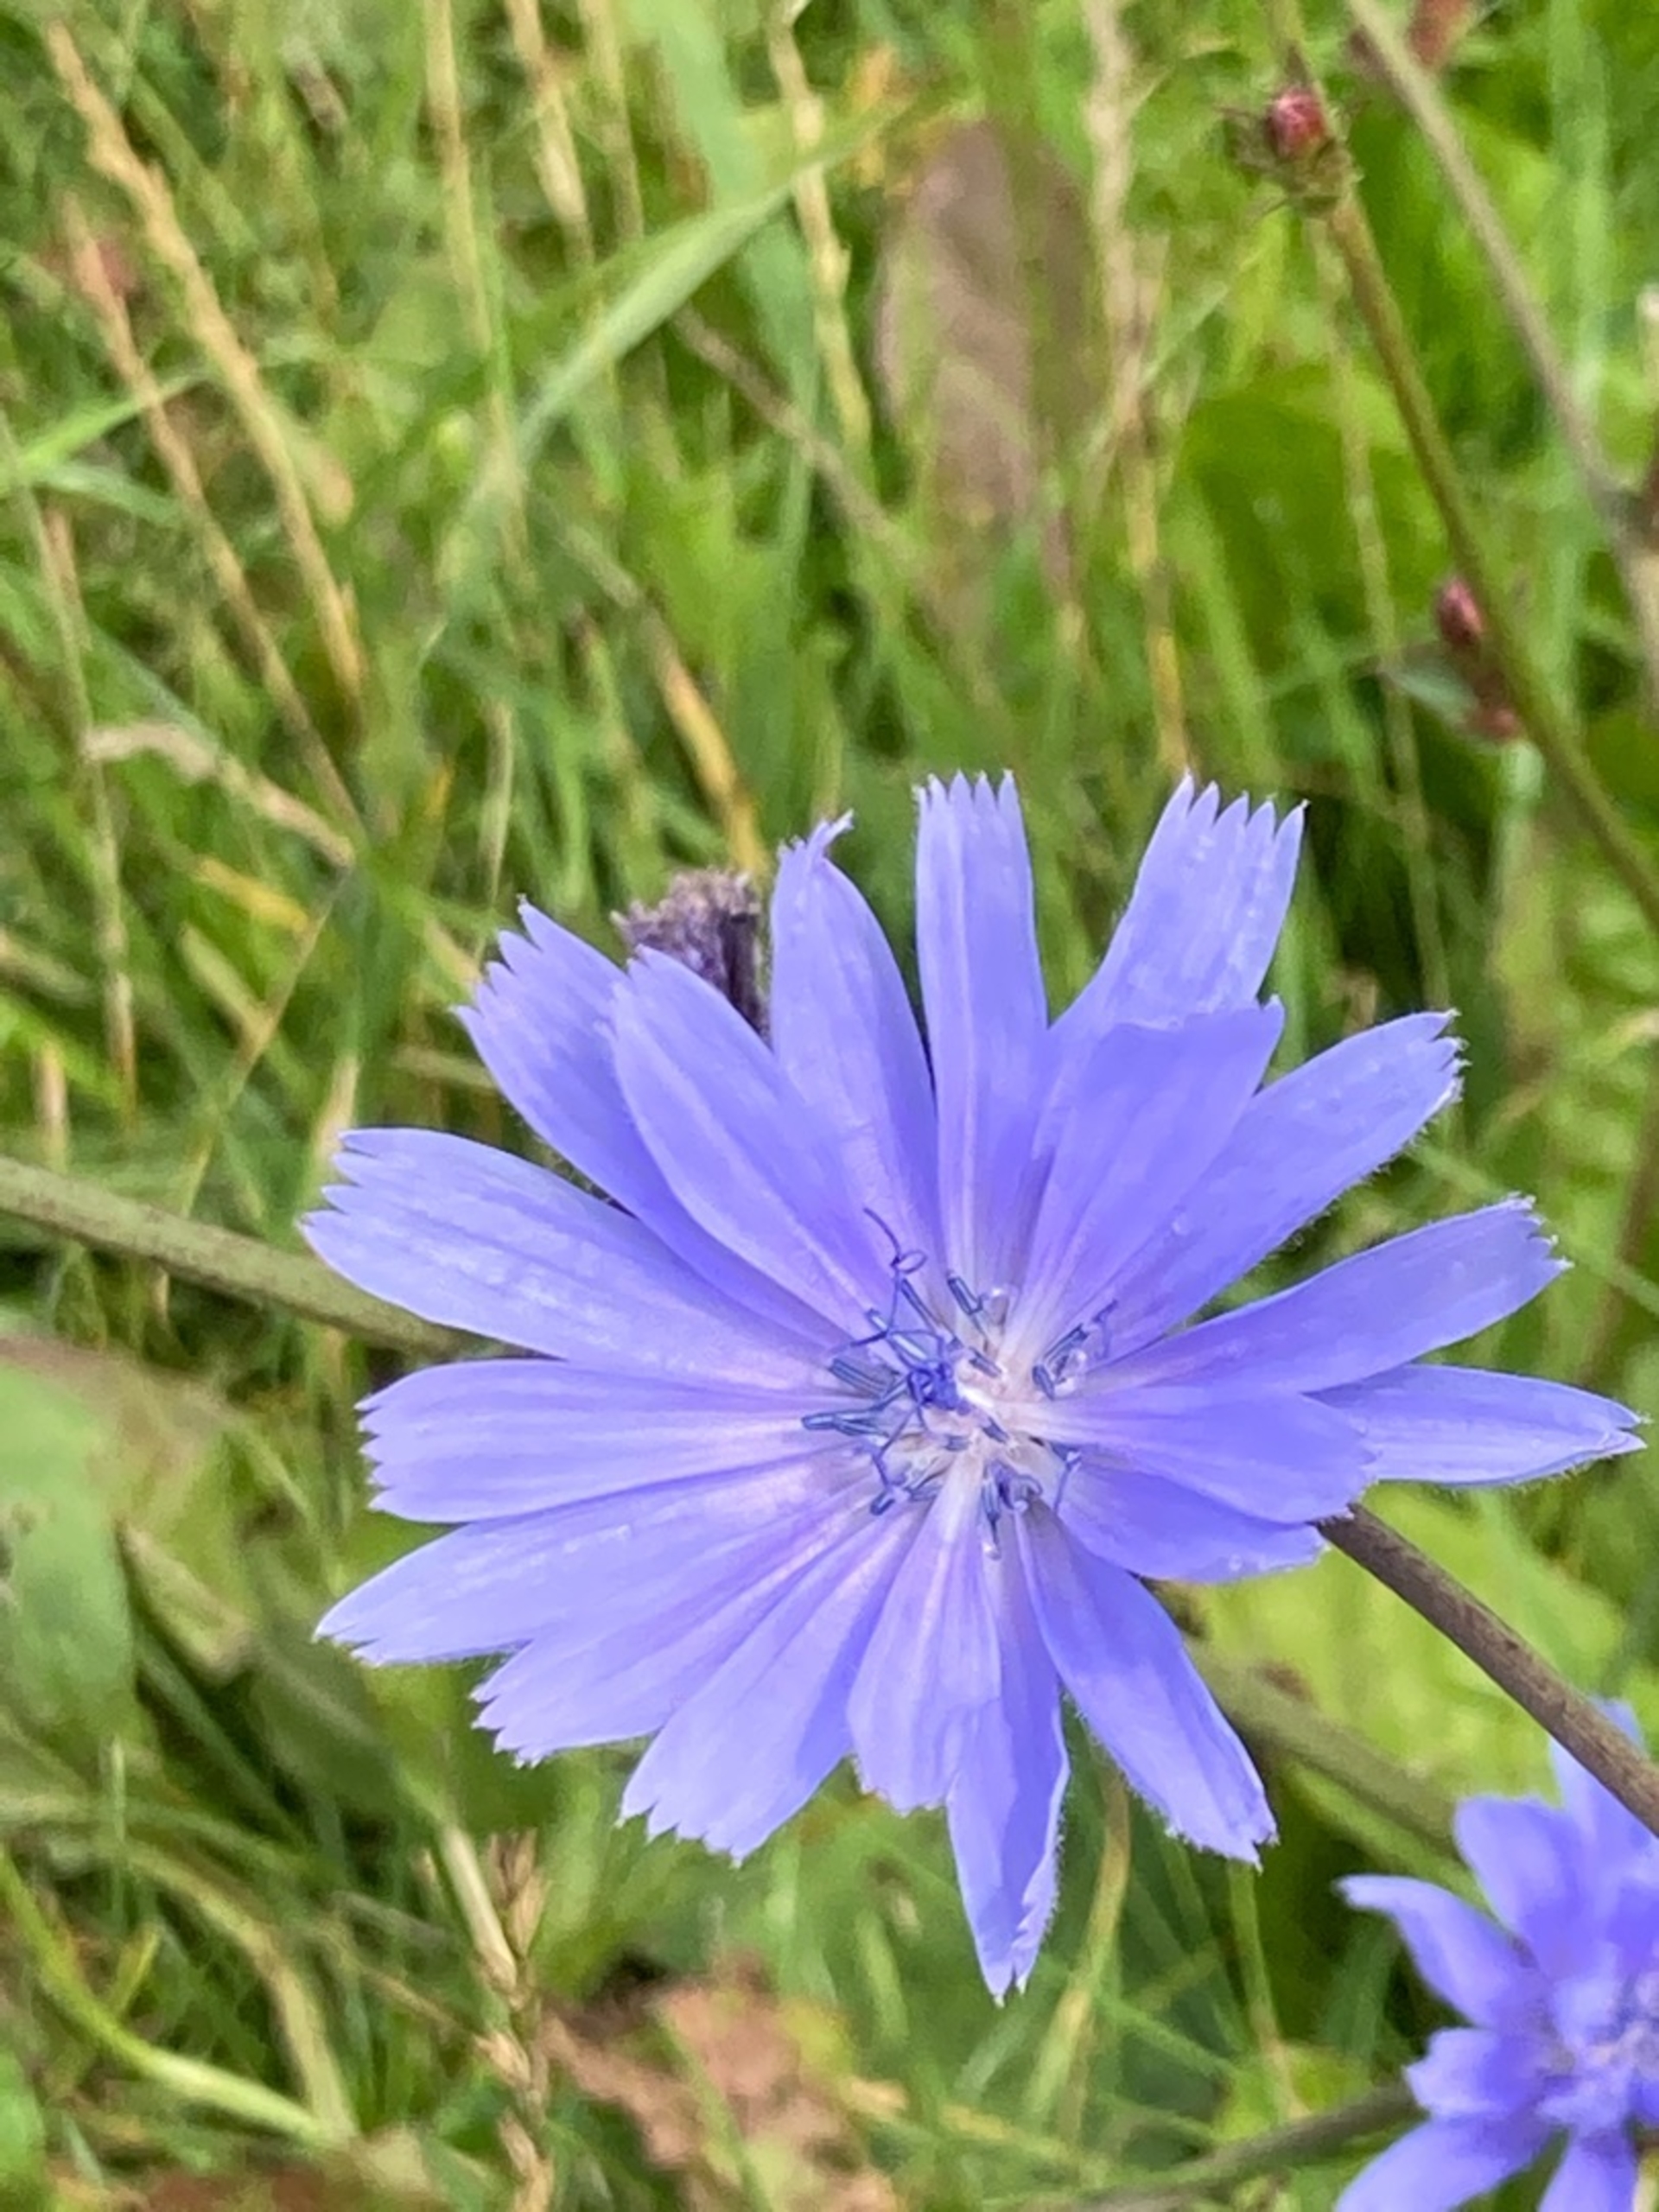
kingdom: Plantae
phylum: Tracheophyta
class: Magnoliopsida
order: Asterales
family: Asteraceae
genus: Cichorium
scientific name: Cichorium intybus
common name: Cikorie
